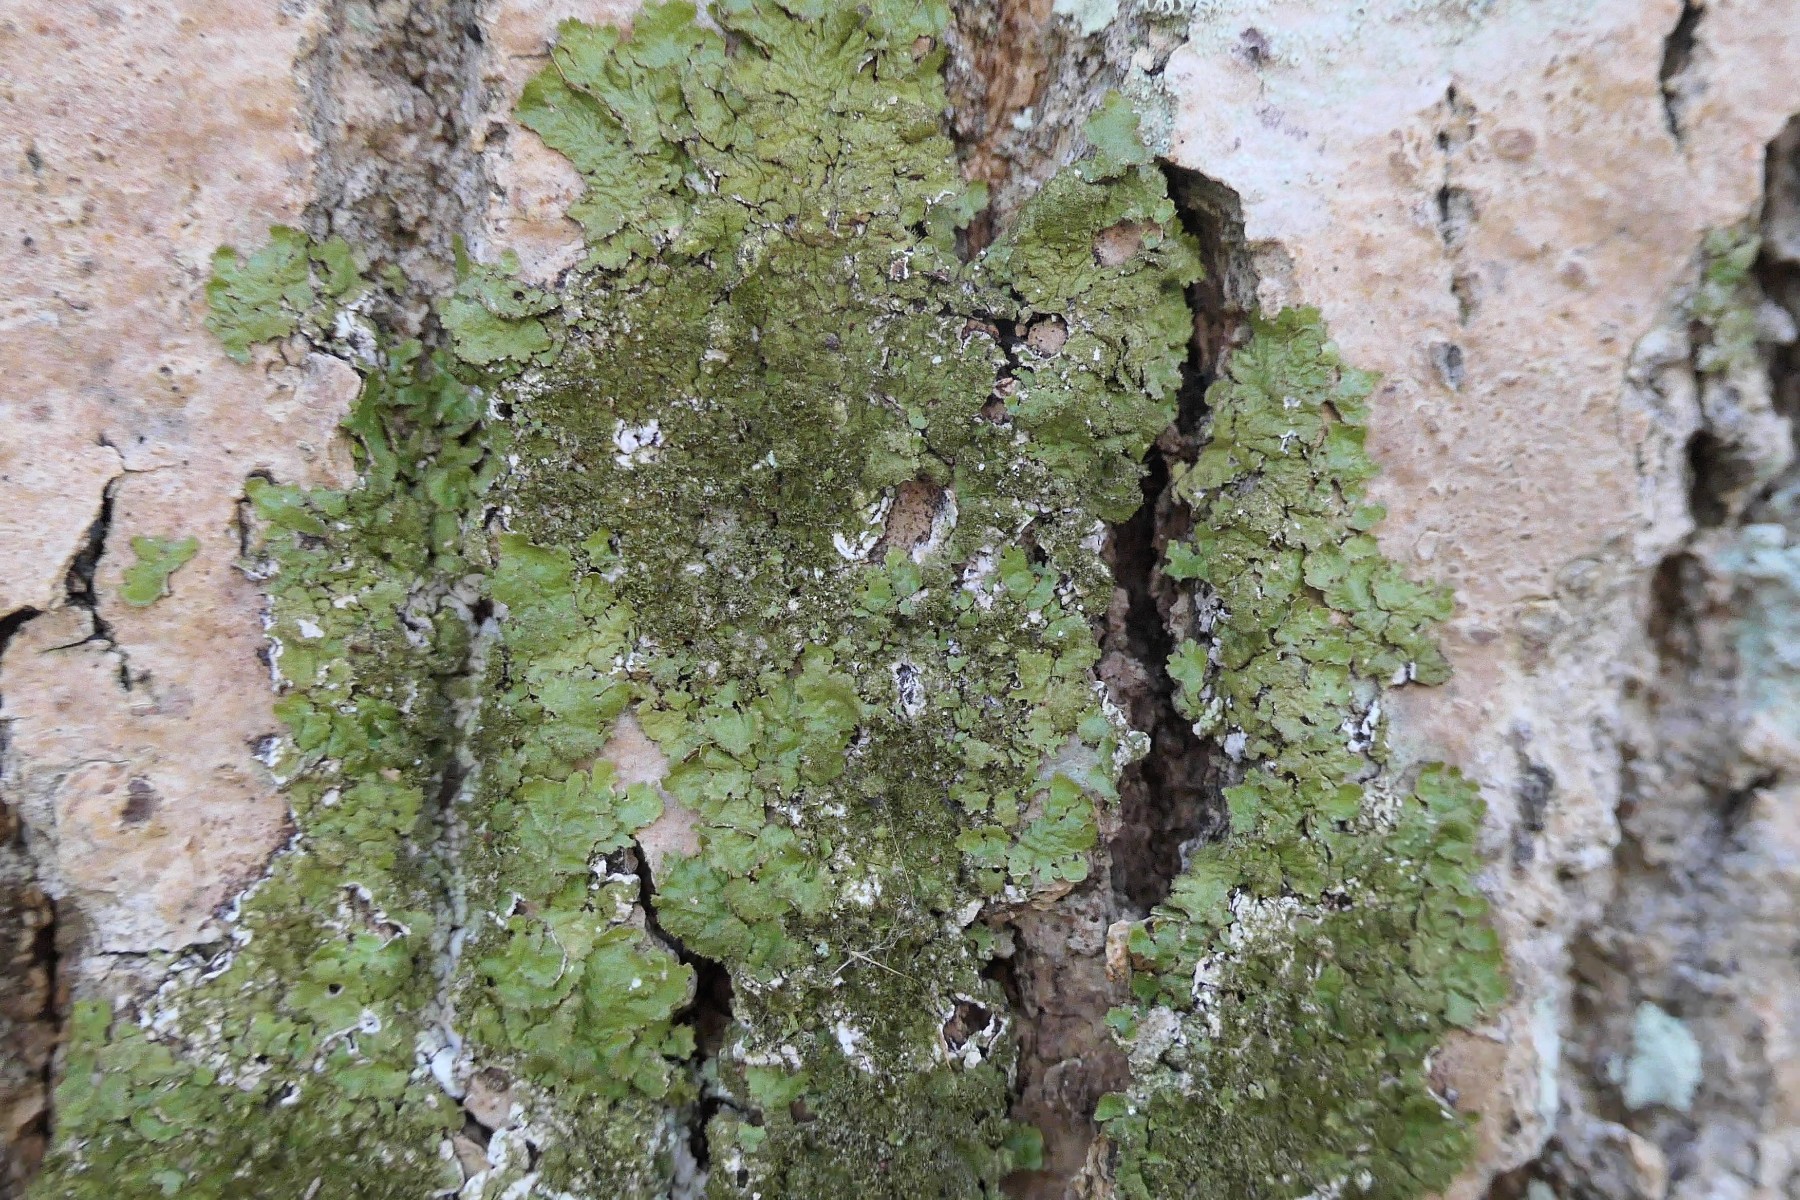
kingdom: Fungi
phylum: Ascomycota
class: Lecanoromycetes
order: Lecanorales
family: Parmeliaceae
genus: Melanelixia
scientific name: Melanelixia glabratula
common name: glinsende skållav
